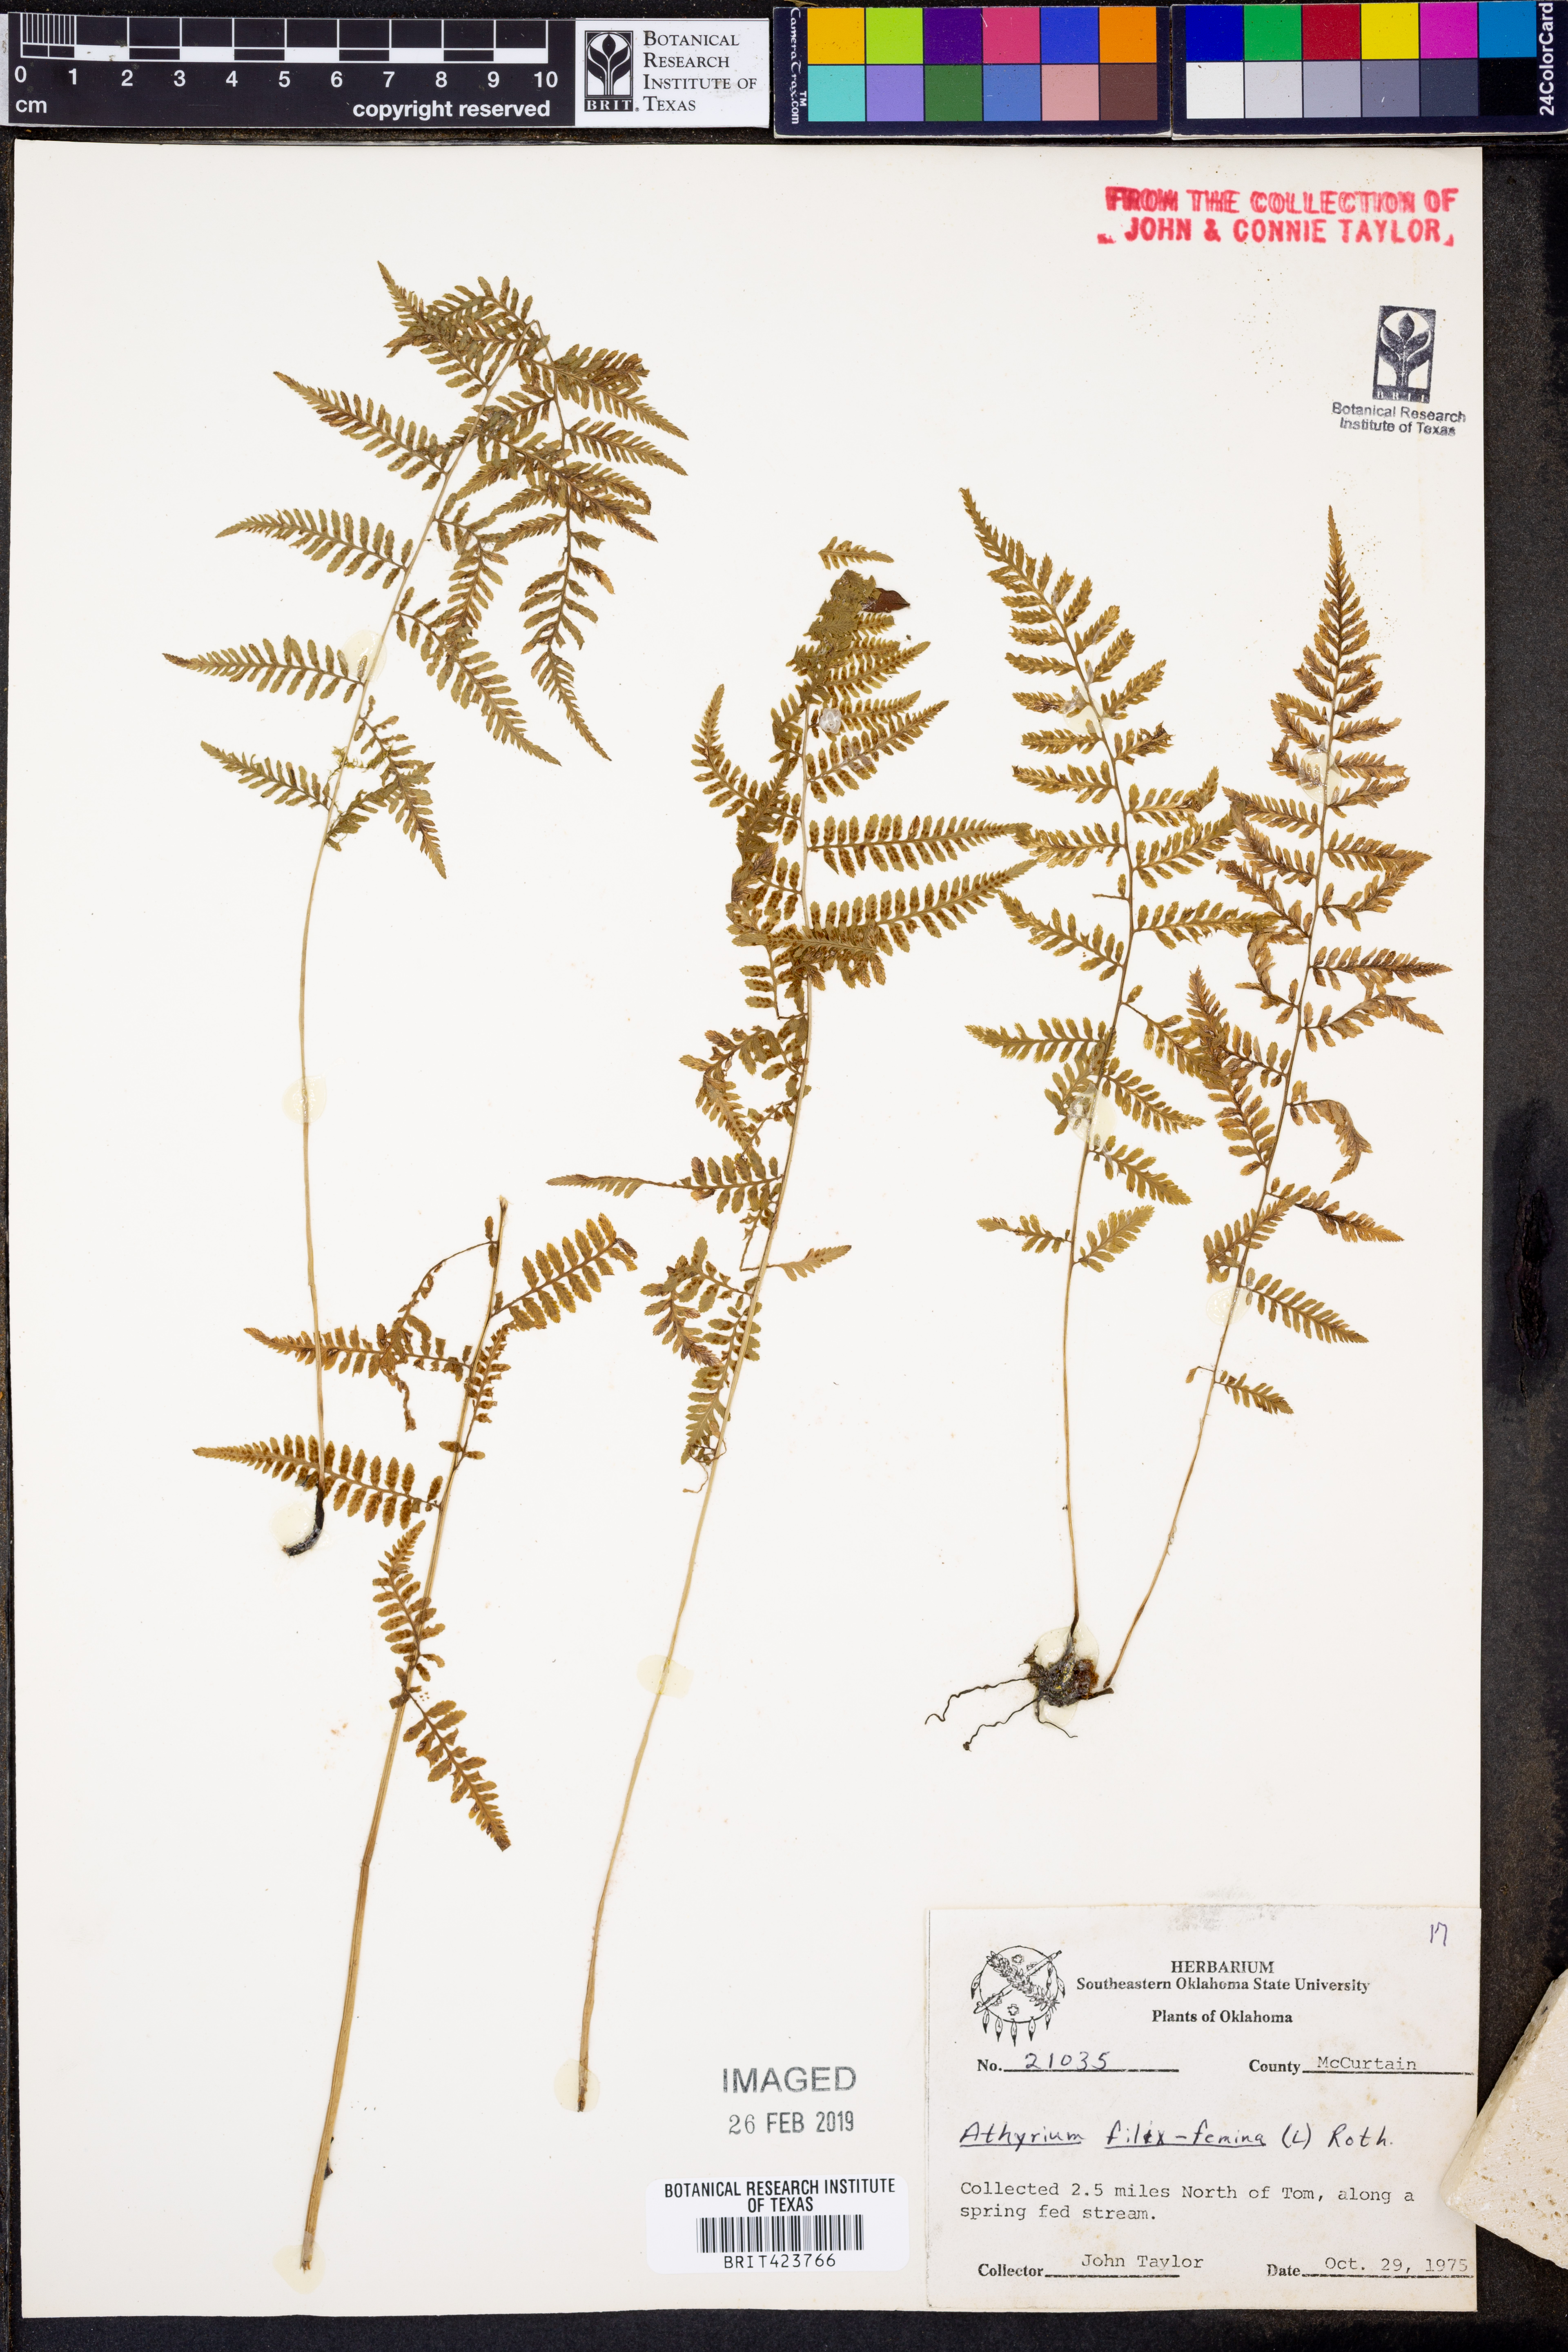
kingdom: Plantae
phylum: Tracheophyta
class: Polypodiopsida
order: Polypodiales
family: Athyriaceae
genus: Athyrium
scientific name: Athyrium filix-femina
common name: Lady fern
